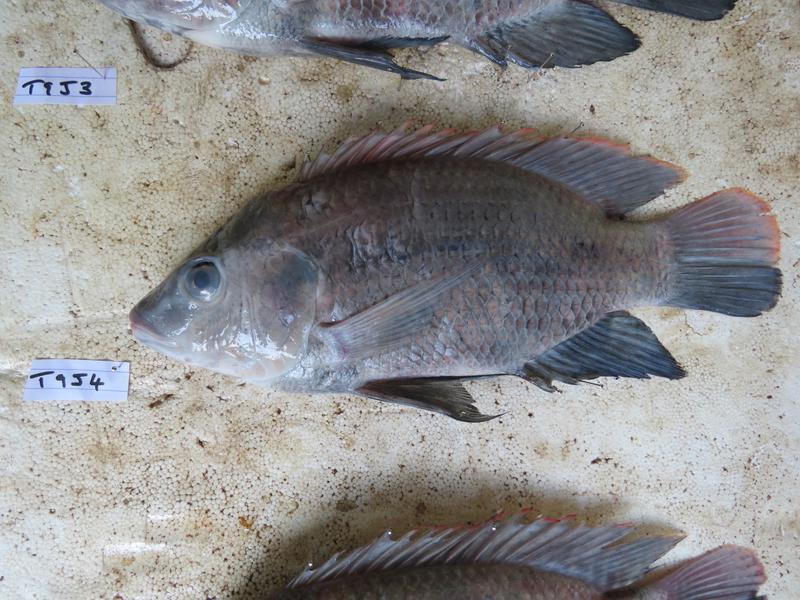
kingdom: Animalia
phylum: Chordata
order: Perciformes
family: Cichlidae
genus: Oreochromis
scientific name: Oreochromis urolepis
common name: Wami tilapia
